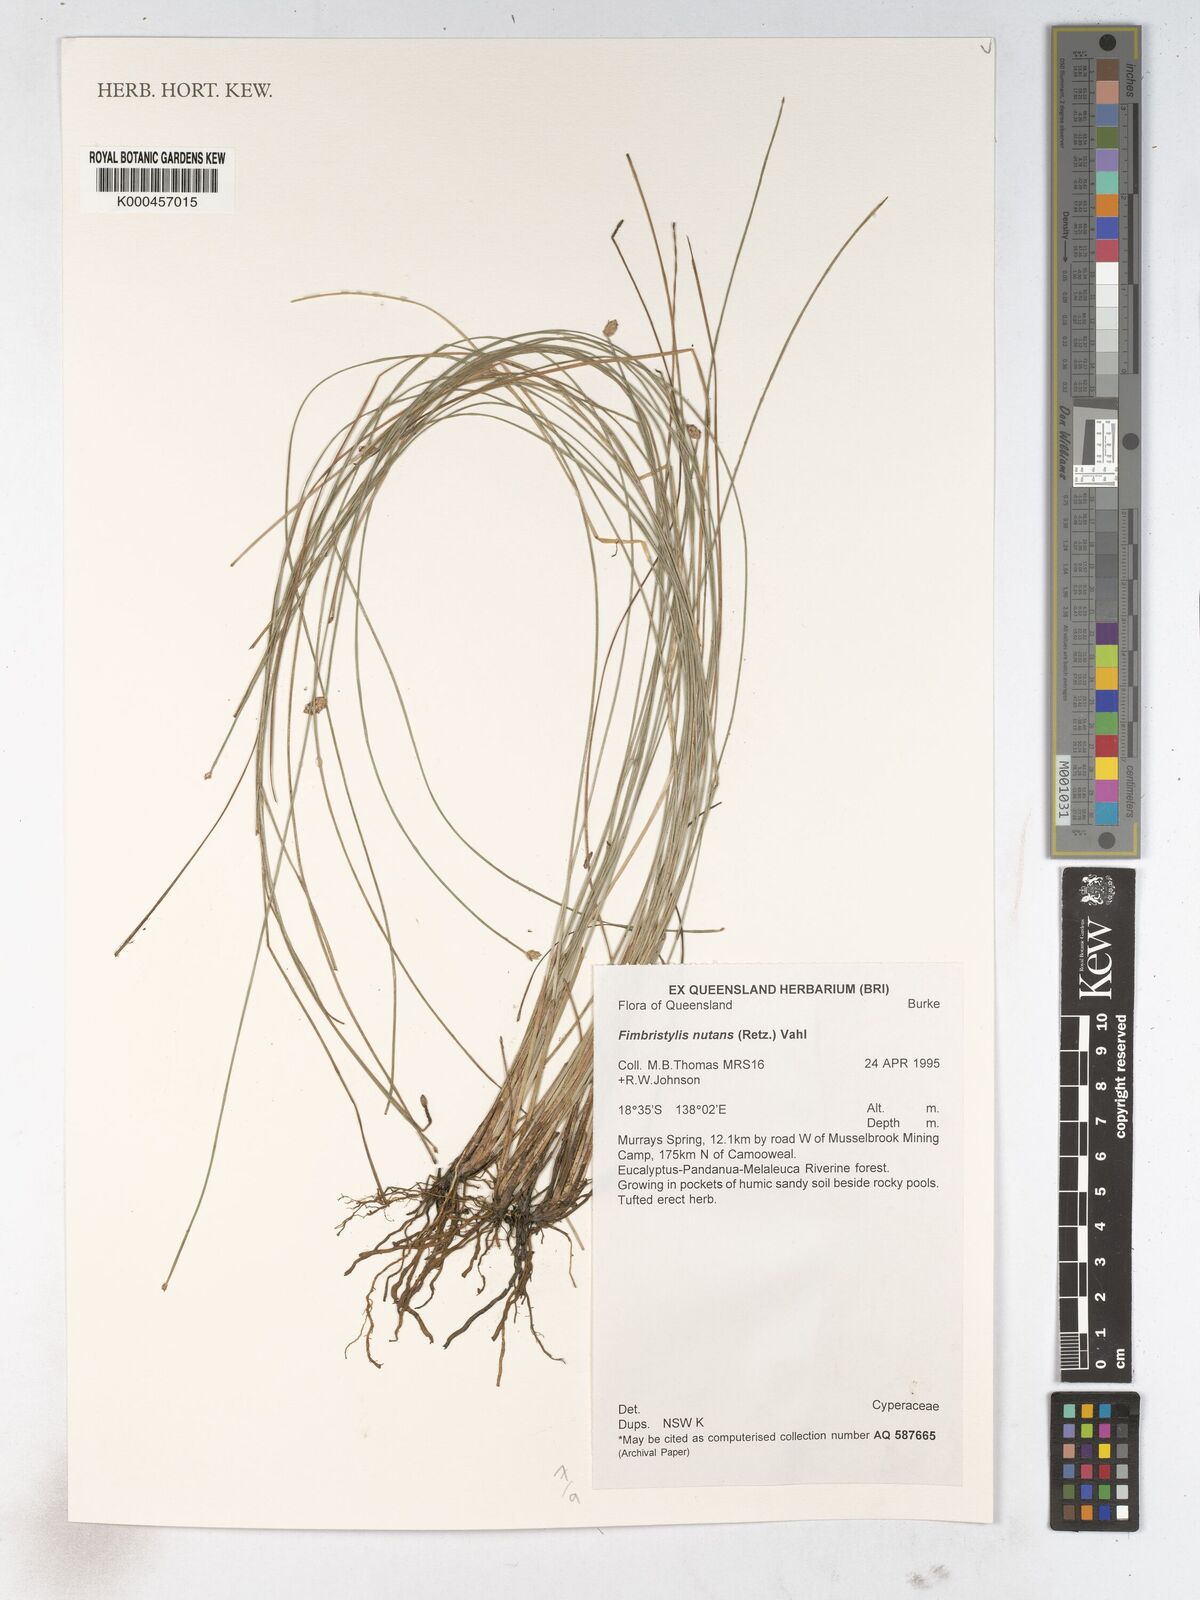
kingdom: Plantae
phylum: Tracheophyta
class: Liliopsida
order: Poales
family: Cyperaceae
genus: Fimbristylis
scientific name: Fimbristylis nutans
